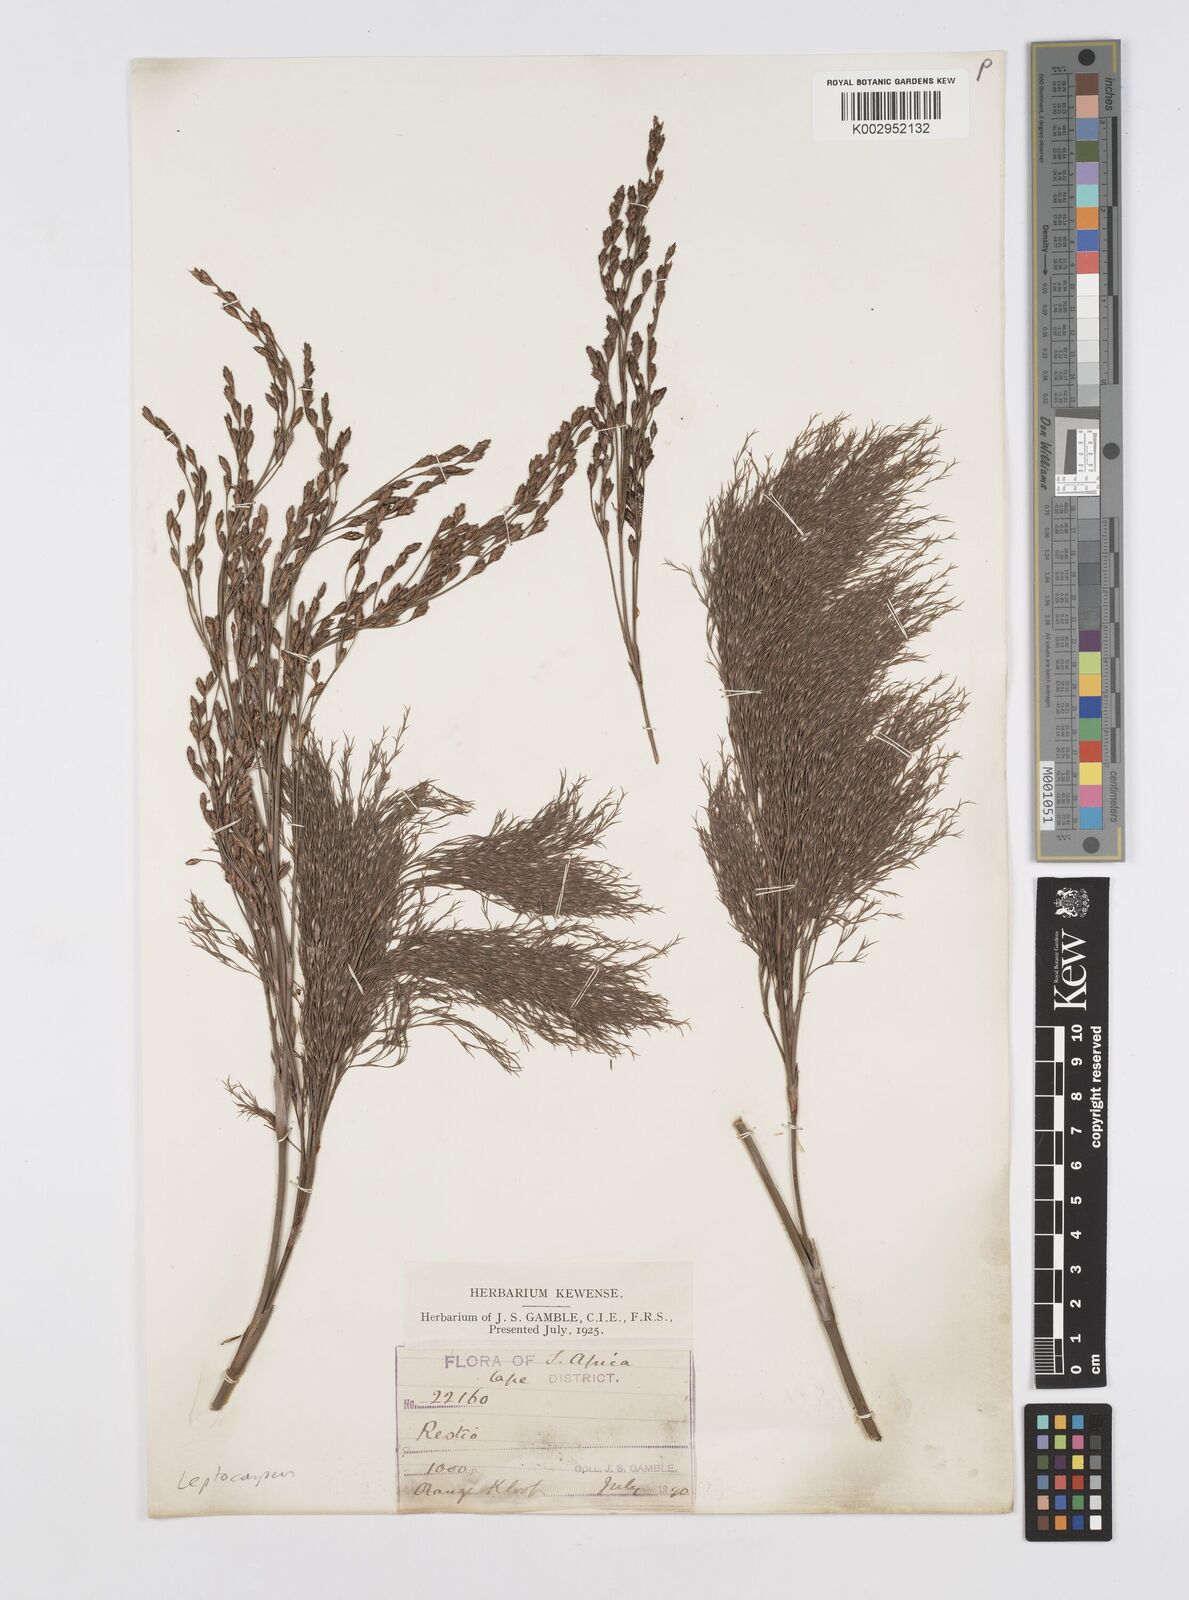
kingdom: Plantae
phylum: Tracheophyta
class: Liliopsida
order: Poales
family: Restionaceae
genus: Restio
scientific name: Restio paniculatus
